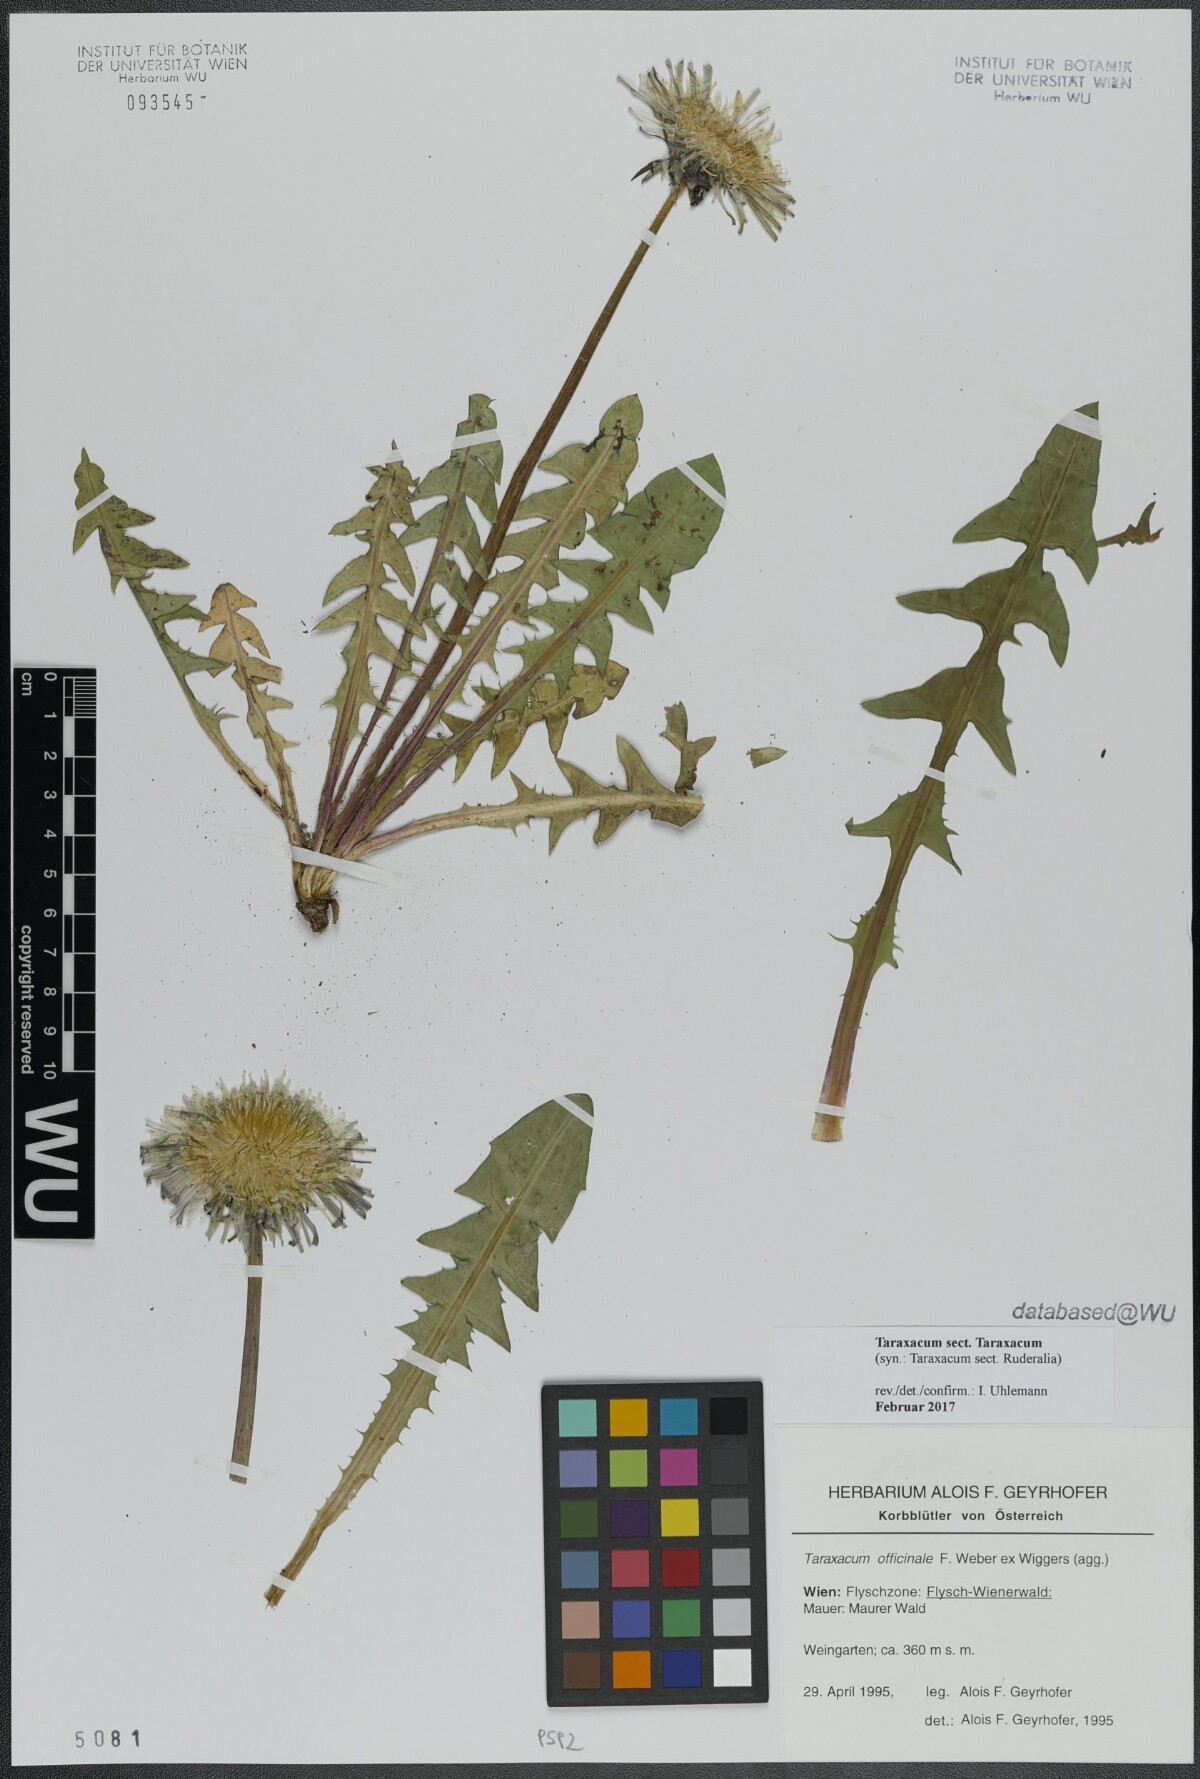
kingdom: Plantae
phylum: Tracheophyta
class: Magnoliopsida
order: Asterales
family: Asteraceae
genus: Taraxacum
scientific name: Taraxacum
